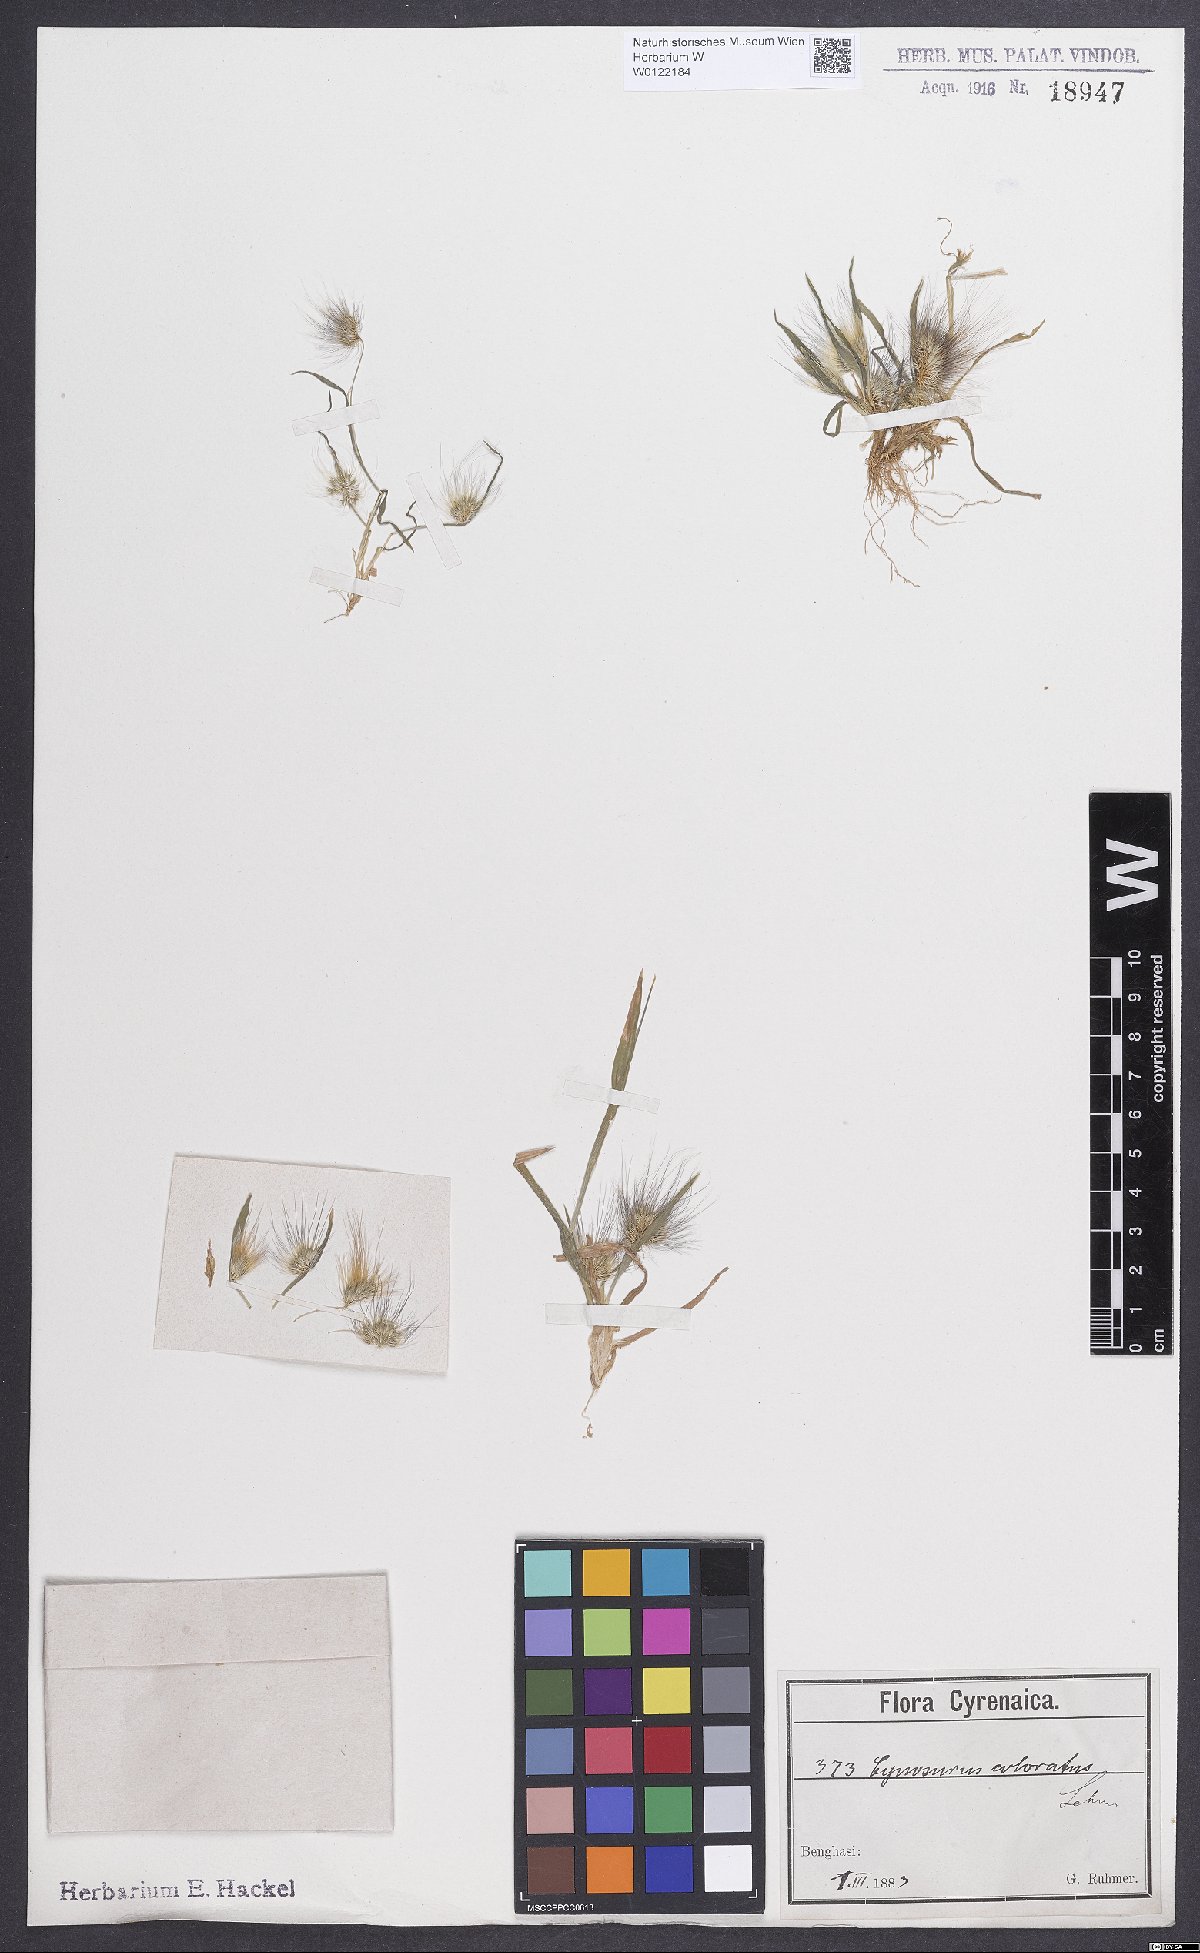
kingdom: Plantae
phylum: Tracheophyta
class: Liliopsida
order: Poales
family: Poaceae
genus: Cynosurus
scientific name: Cynosurus coloratus
